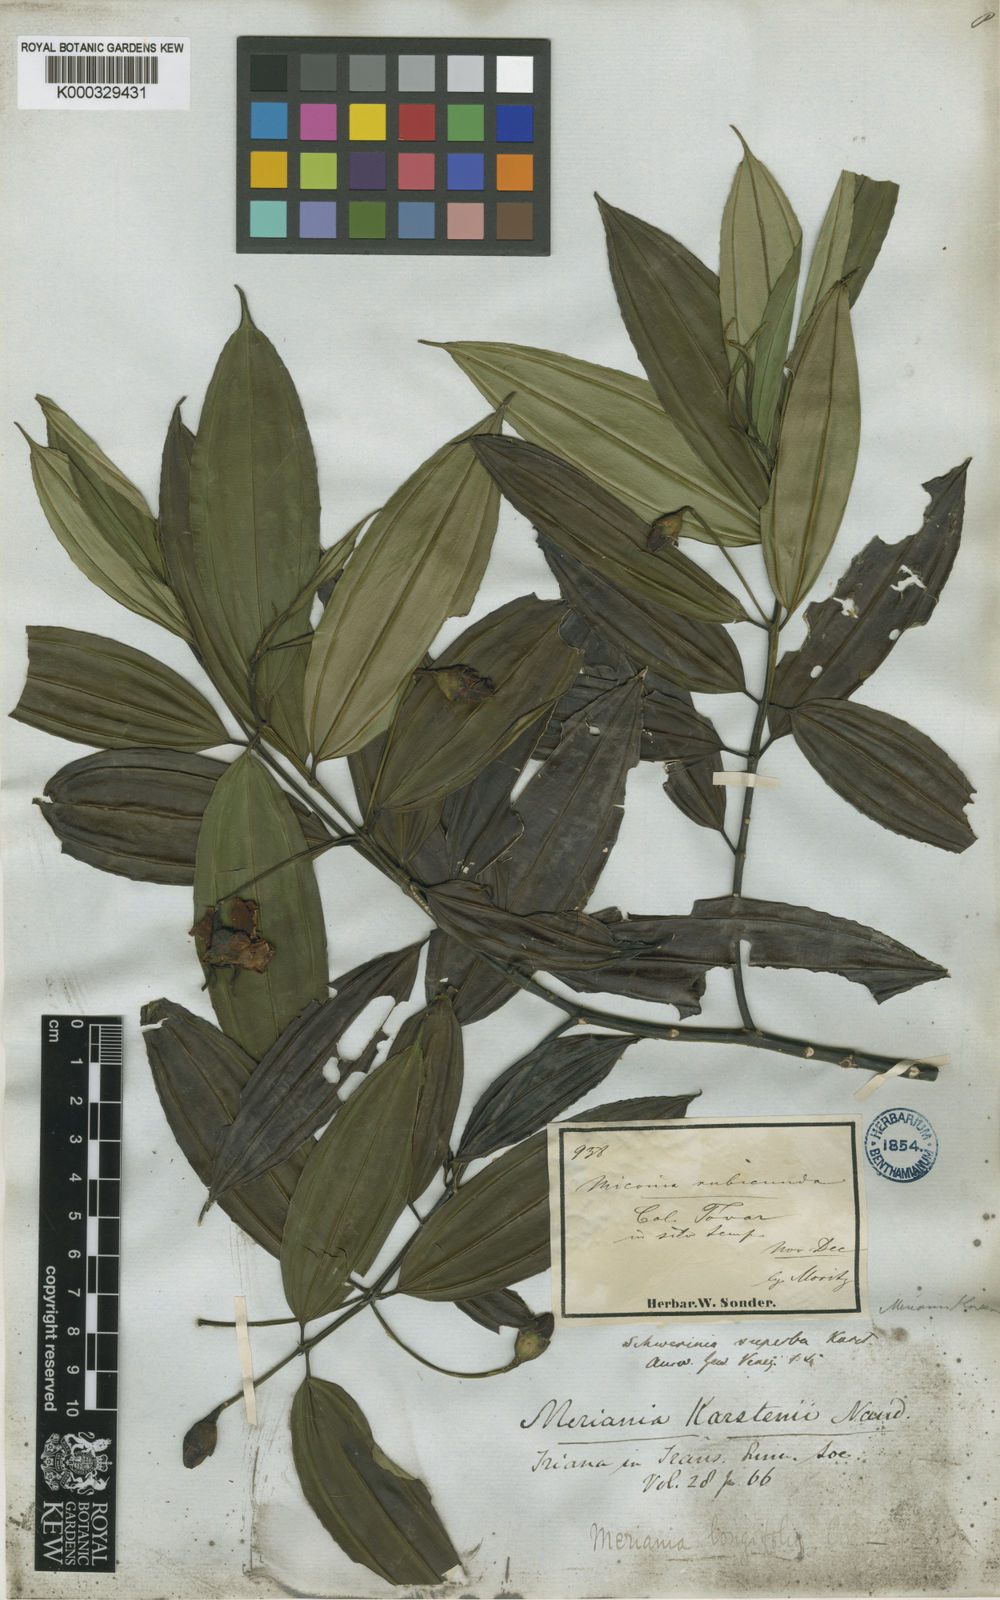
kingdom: Plantae
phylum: Tracheophyta
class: Magnoliopsida
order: Myrtales
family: Melastomataceae
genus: Meriania
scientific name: Meriania longifolia
